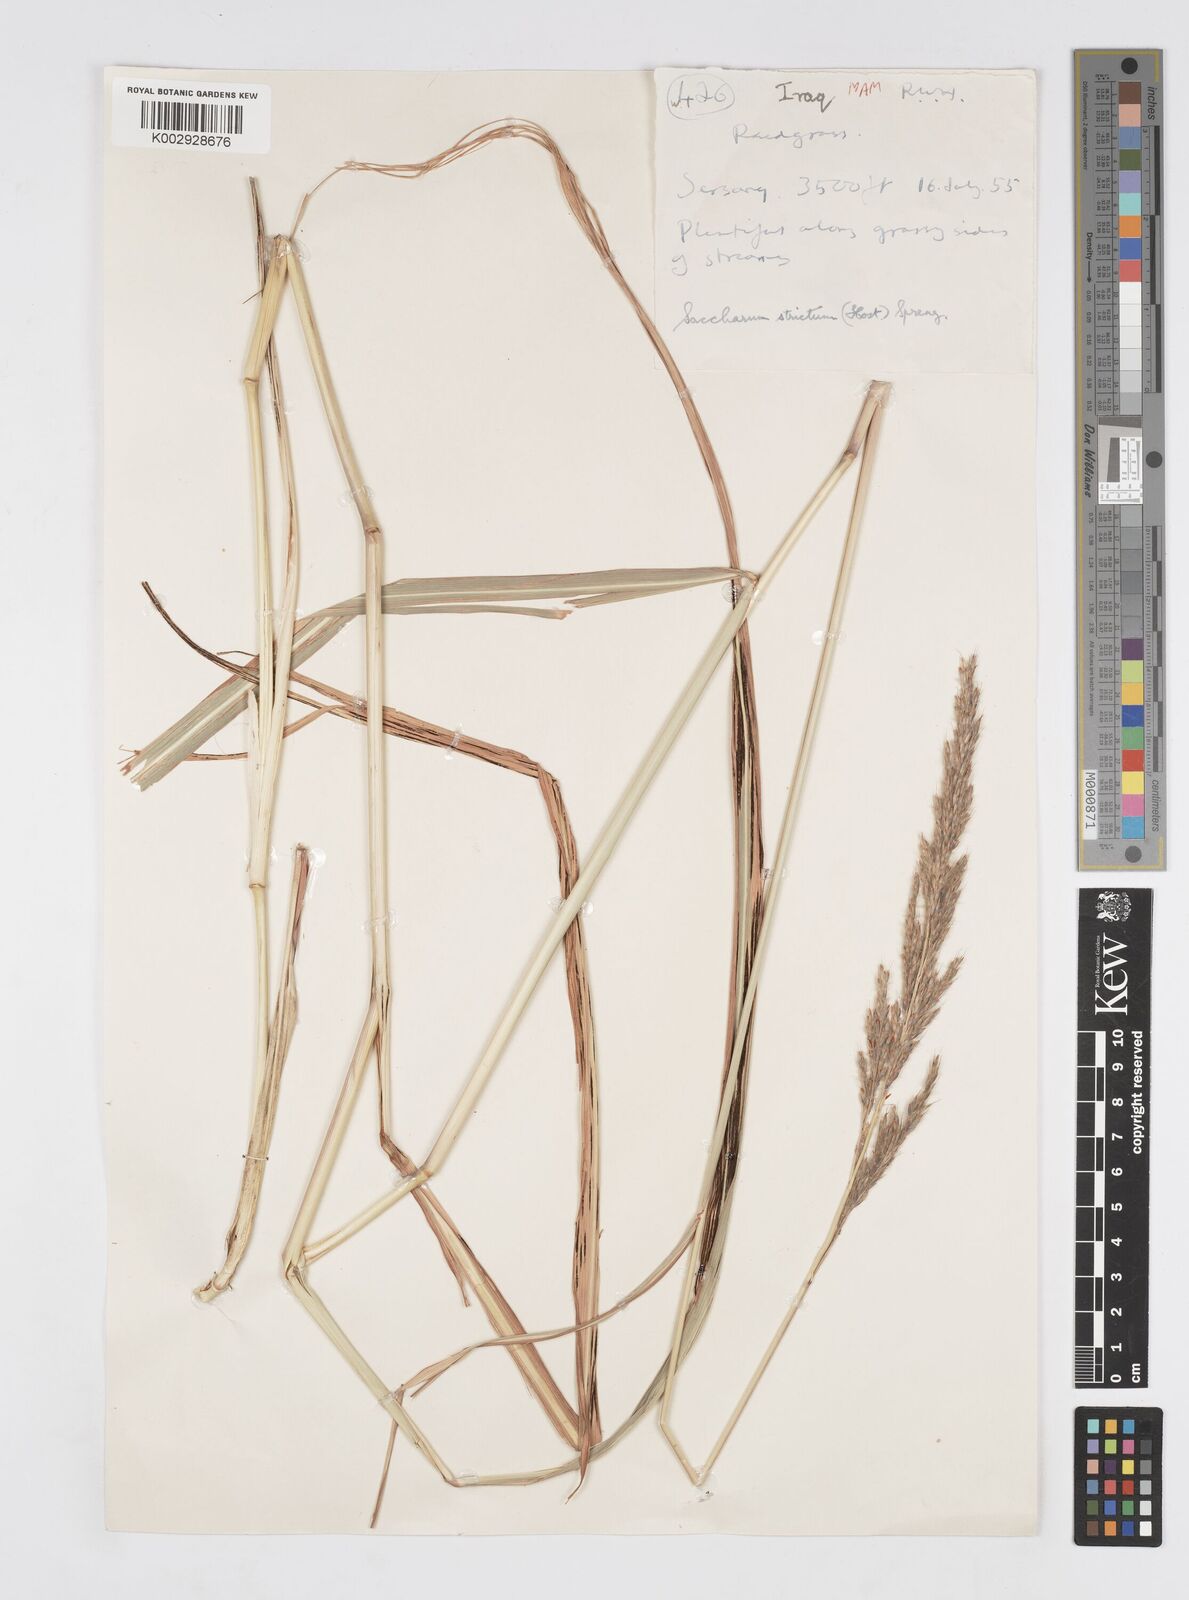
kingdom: Plantae
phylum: Tracheophyta
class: Liliopsida
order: Poales
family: Poaceae
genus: Tripidium
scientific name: Tripidium strictum
